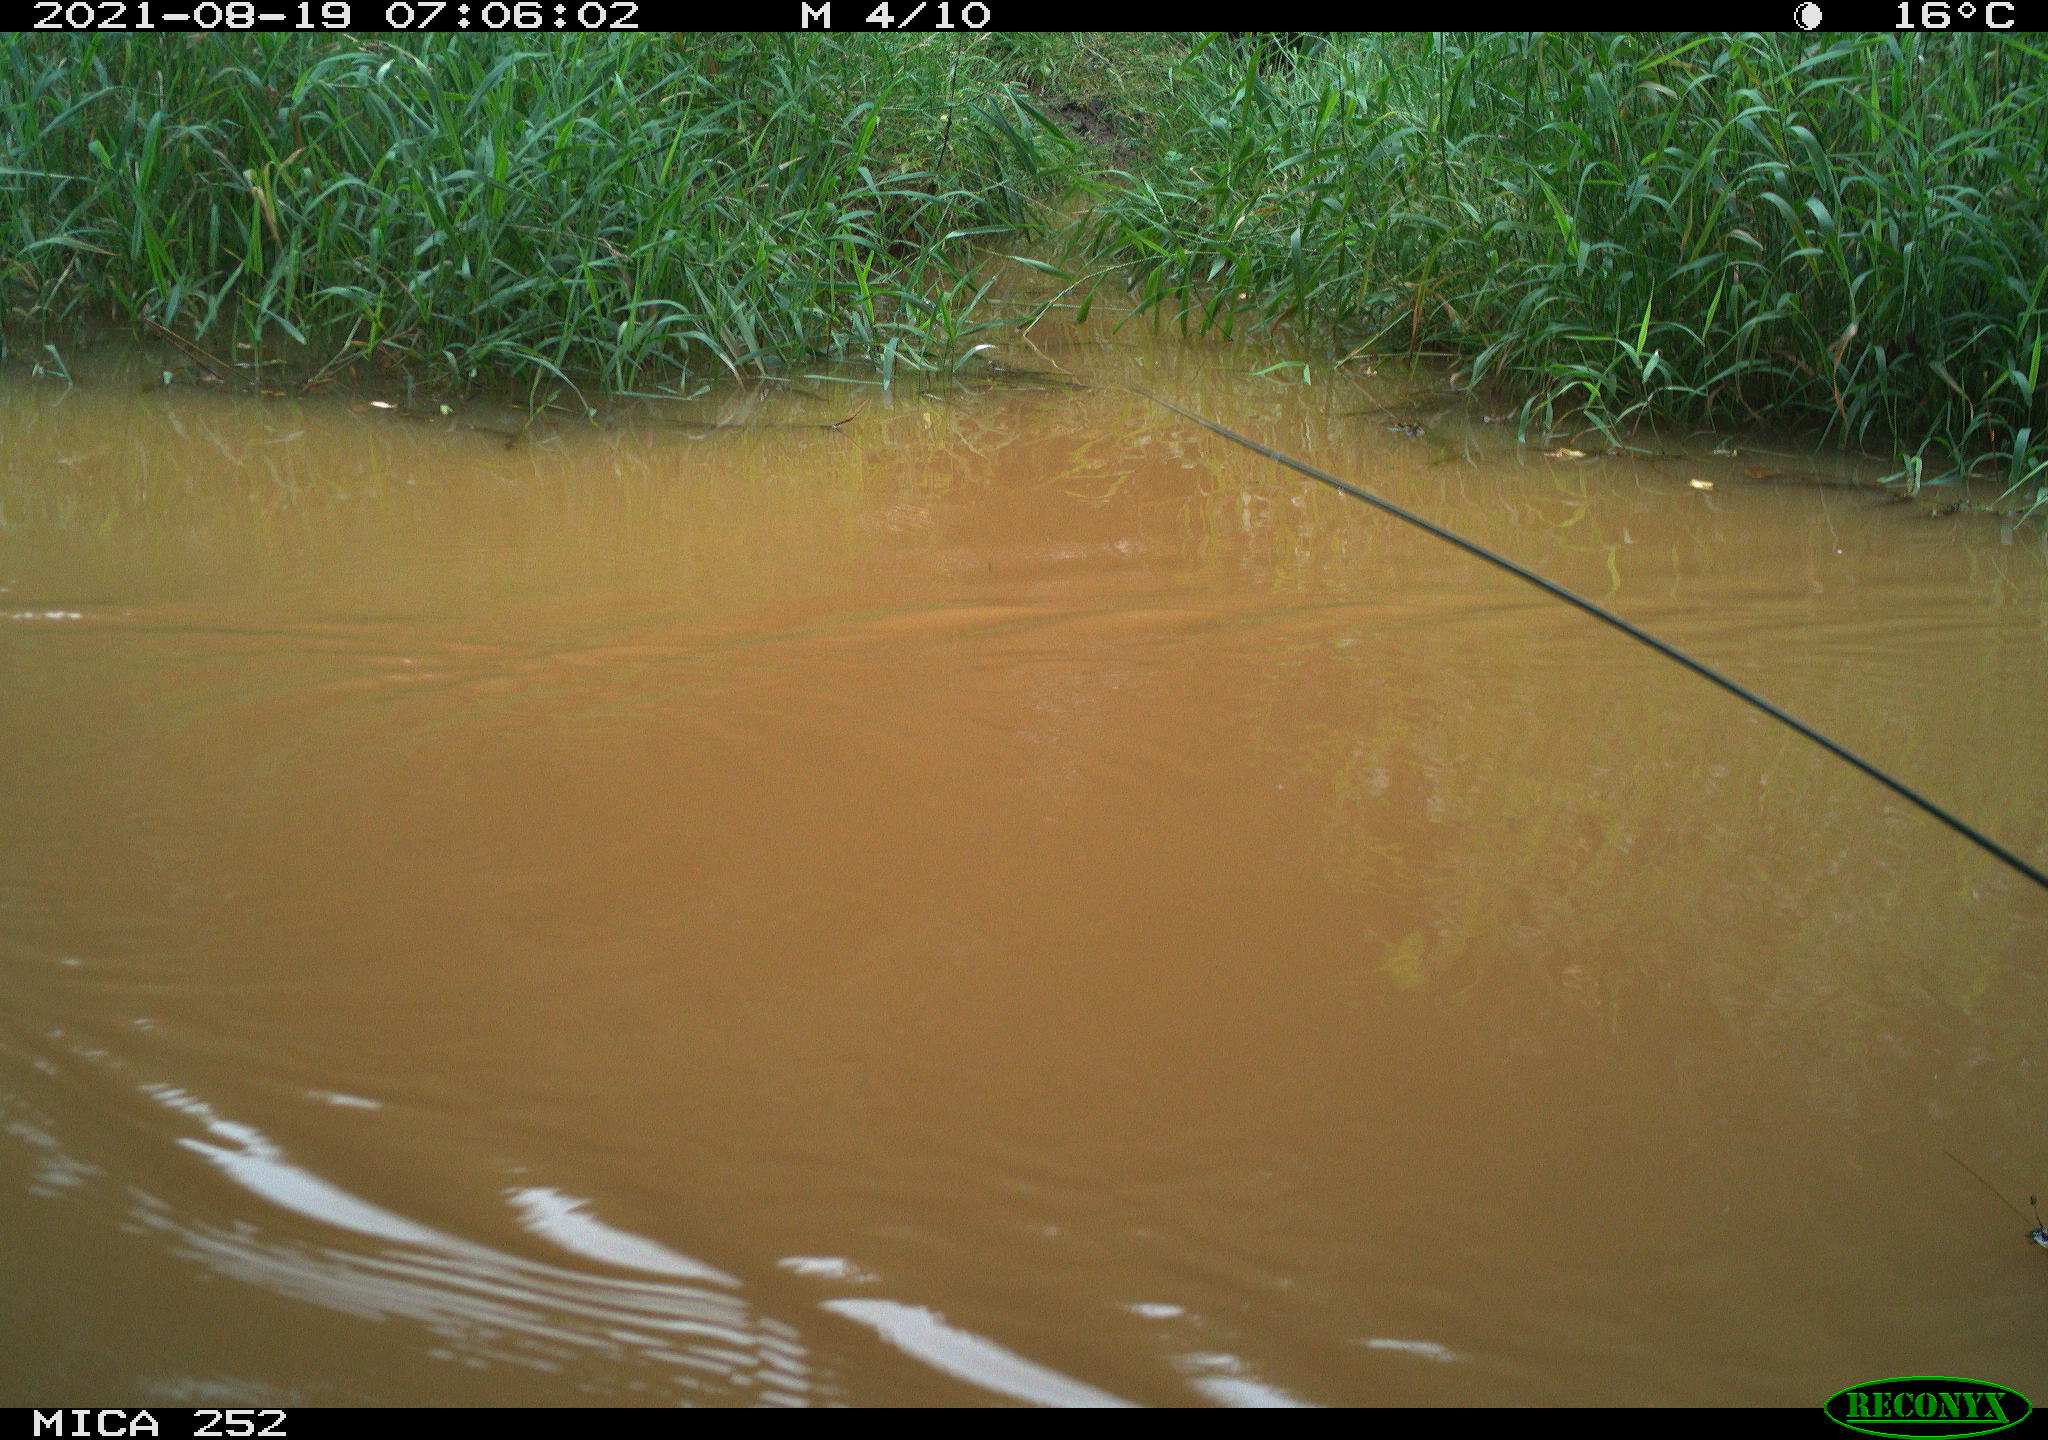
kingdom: Animalia
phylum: Chordata
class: Aves
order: Anseriformes
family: Anatidae
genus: Aix
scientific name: Aix galericulata
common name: Mandarin duck
